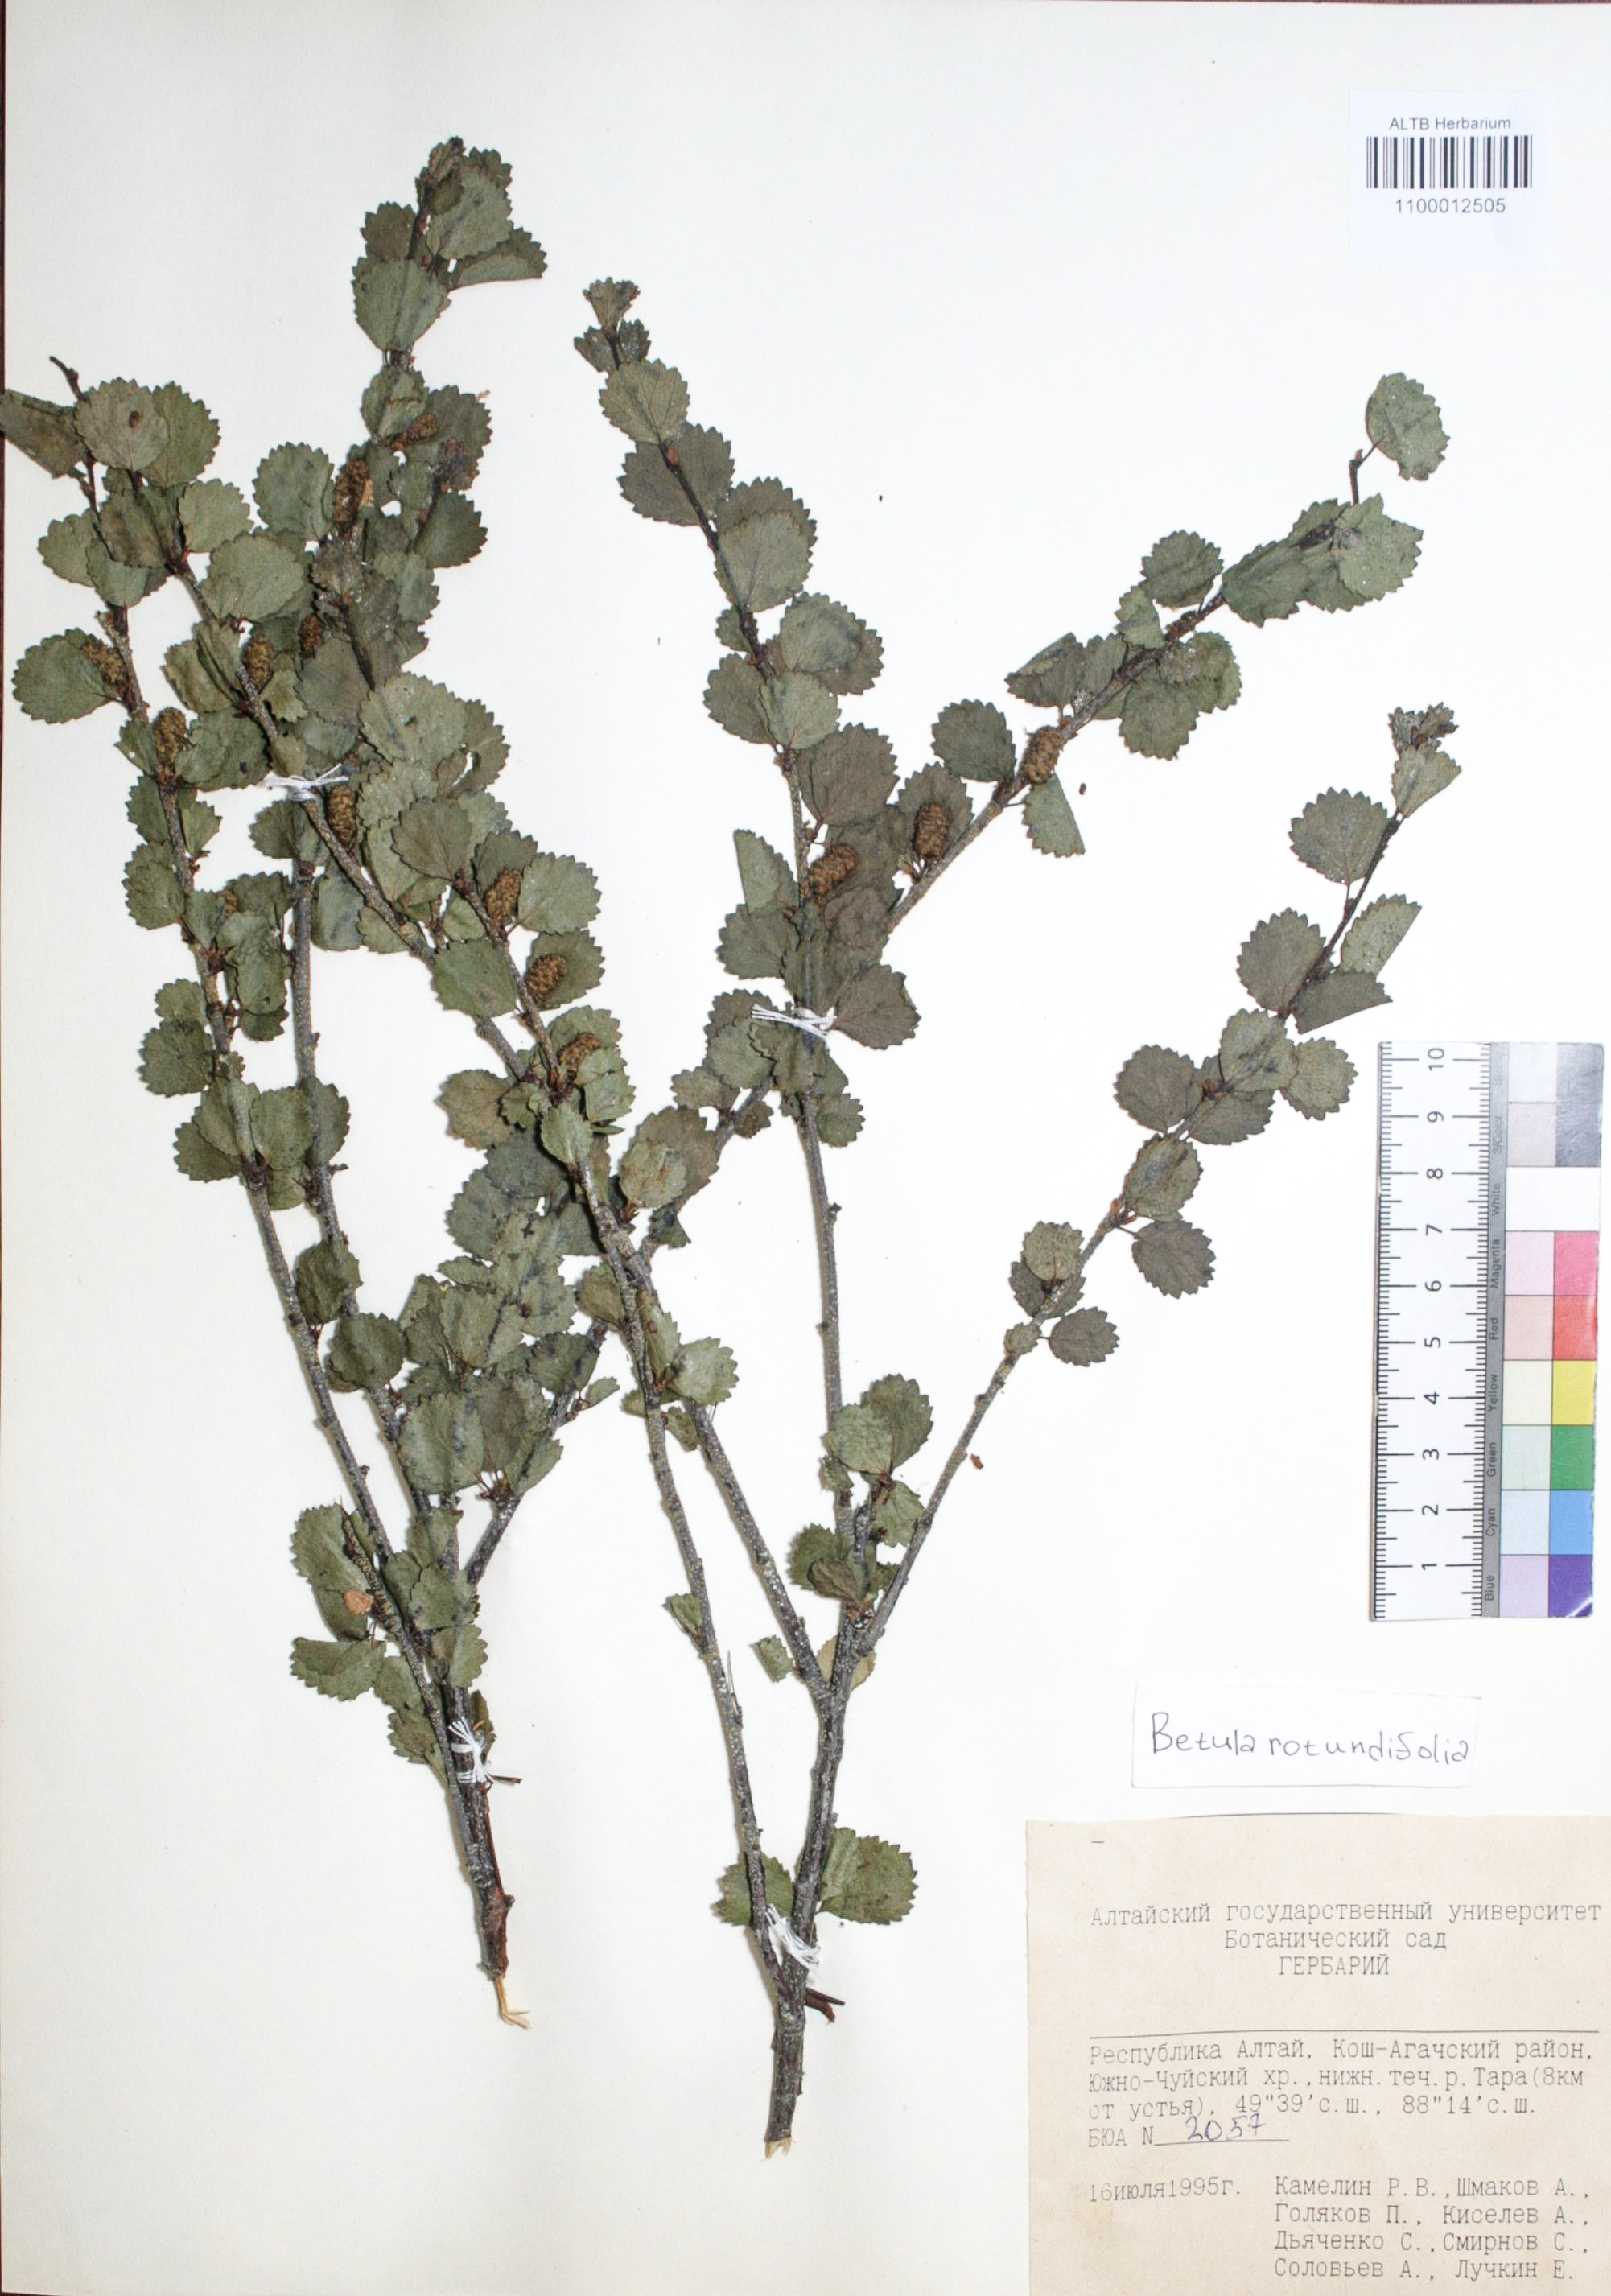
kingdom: Plantae
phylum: Tracheophyta
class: Magnoliopsida
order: Fagales
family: Betulaceae
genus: Betula
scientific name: Betula glandulosa
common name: Dwarf birch
